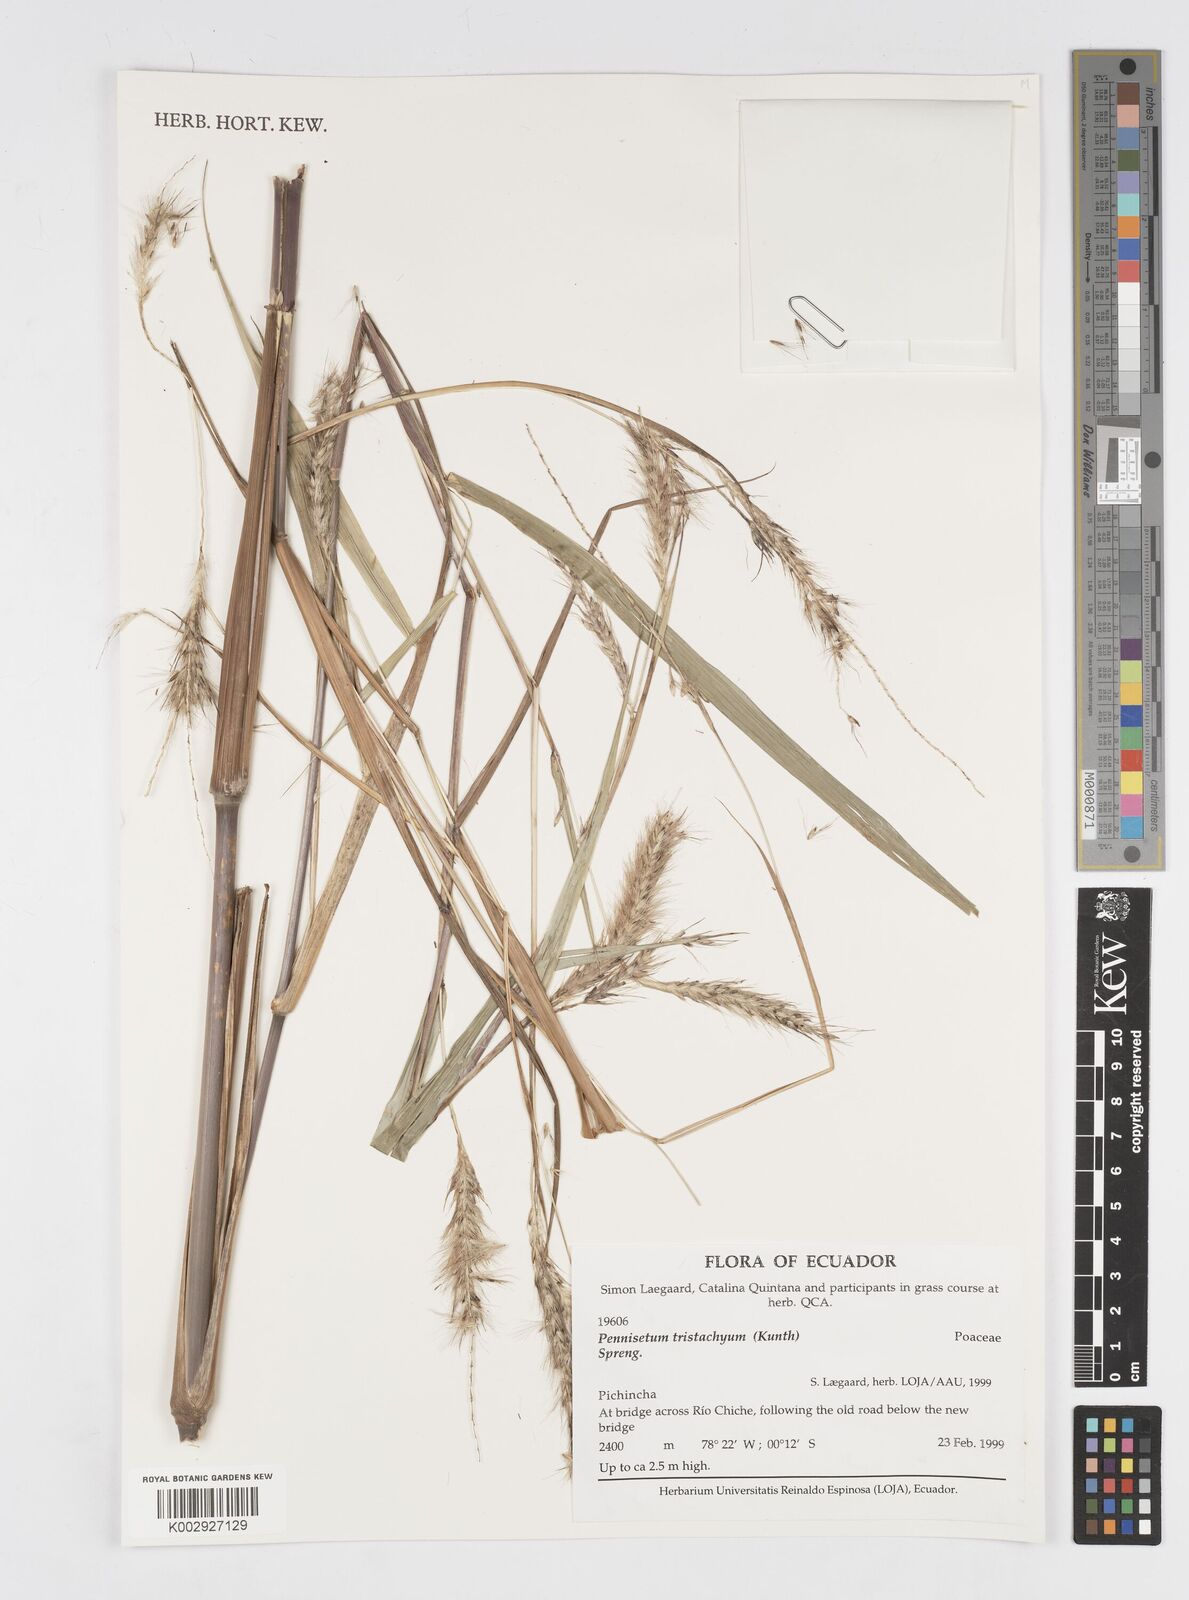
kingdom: Plantae
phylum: Tracheophyta
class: Liliopsida
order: Poales
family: Poaceae
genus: Cenchrus
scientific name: Cenchrus tristachyus
